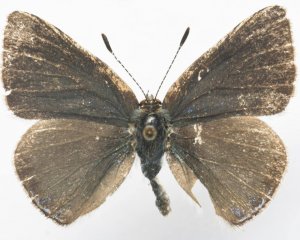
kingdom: Animalia
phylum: Arthropoda
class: Insecta
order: Lepidoptera
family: Lycaenidae
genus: Erora
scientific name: Erora laeta
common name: Early Hairstreak
